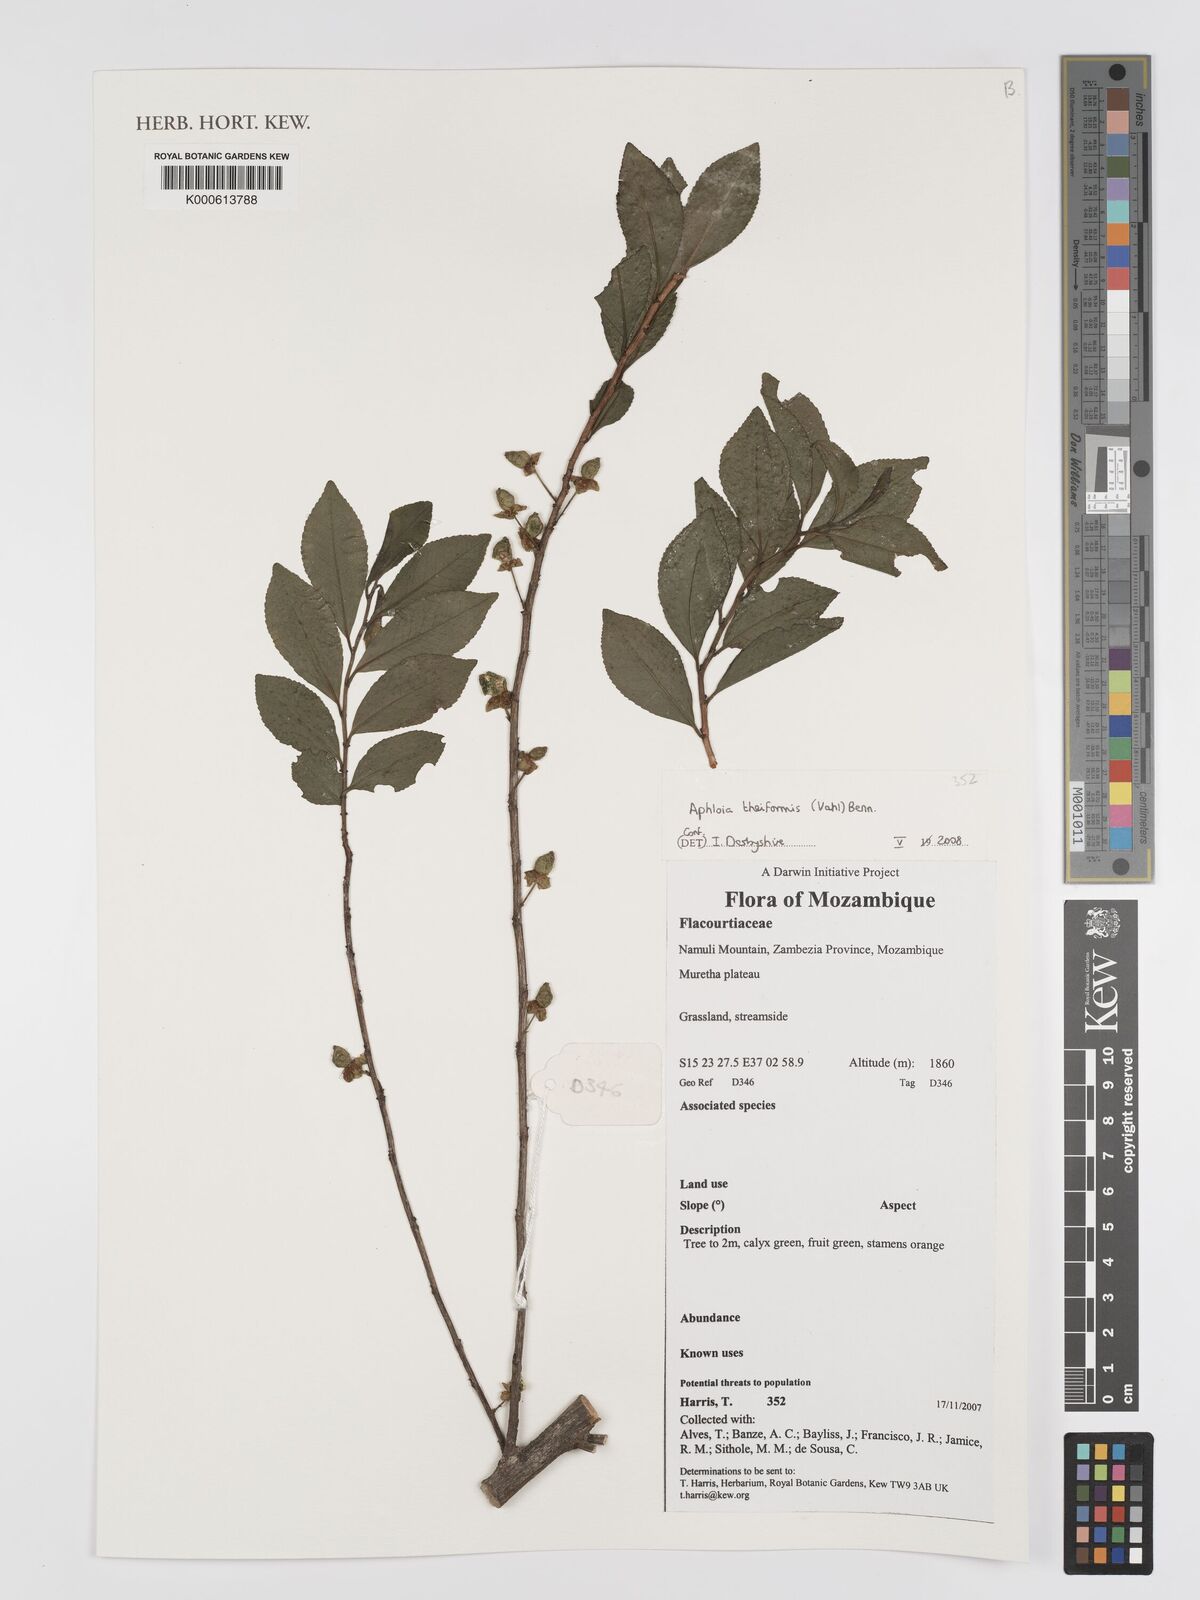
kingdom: Plantae
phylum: Tracheophyta
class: Magnoliopsida
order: Crossosomatales
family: Aphloiaceae
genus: Aphloia
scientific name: Aphloia theiformis
